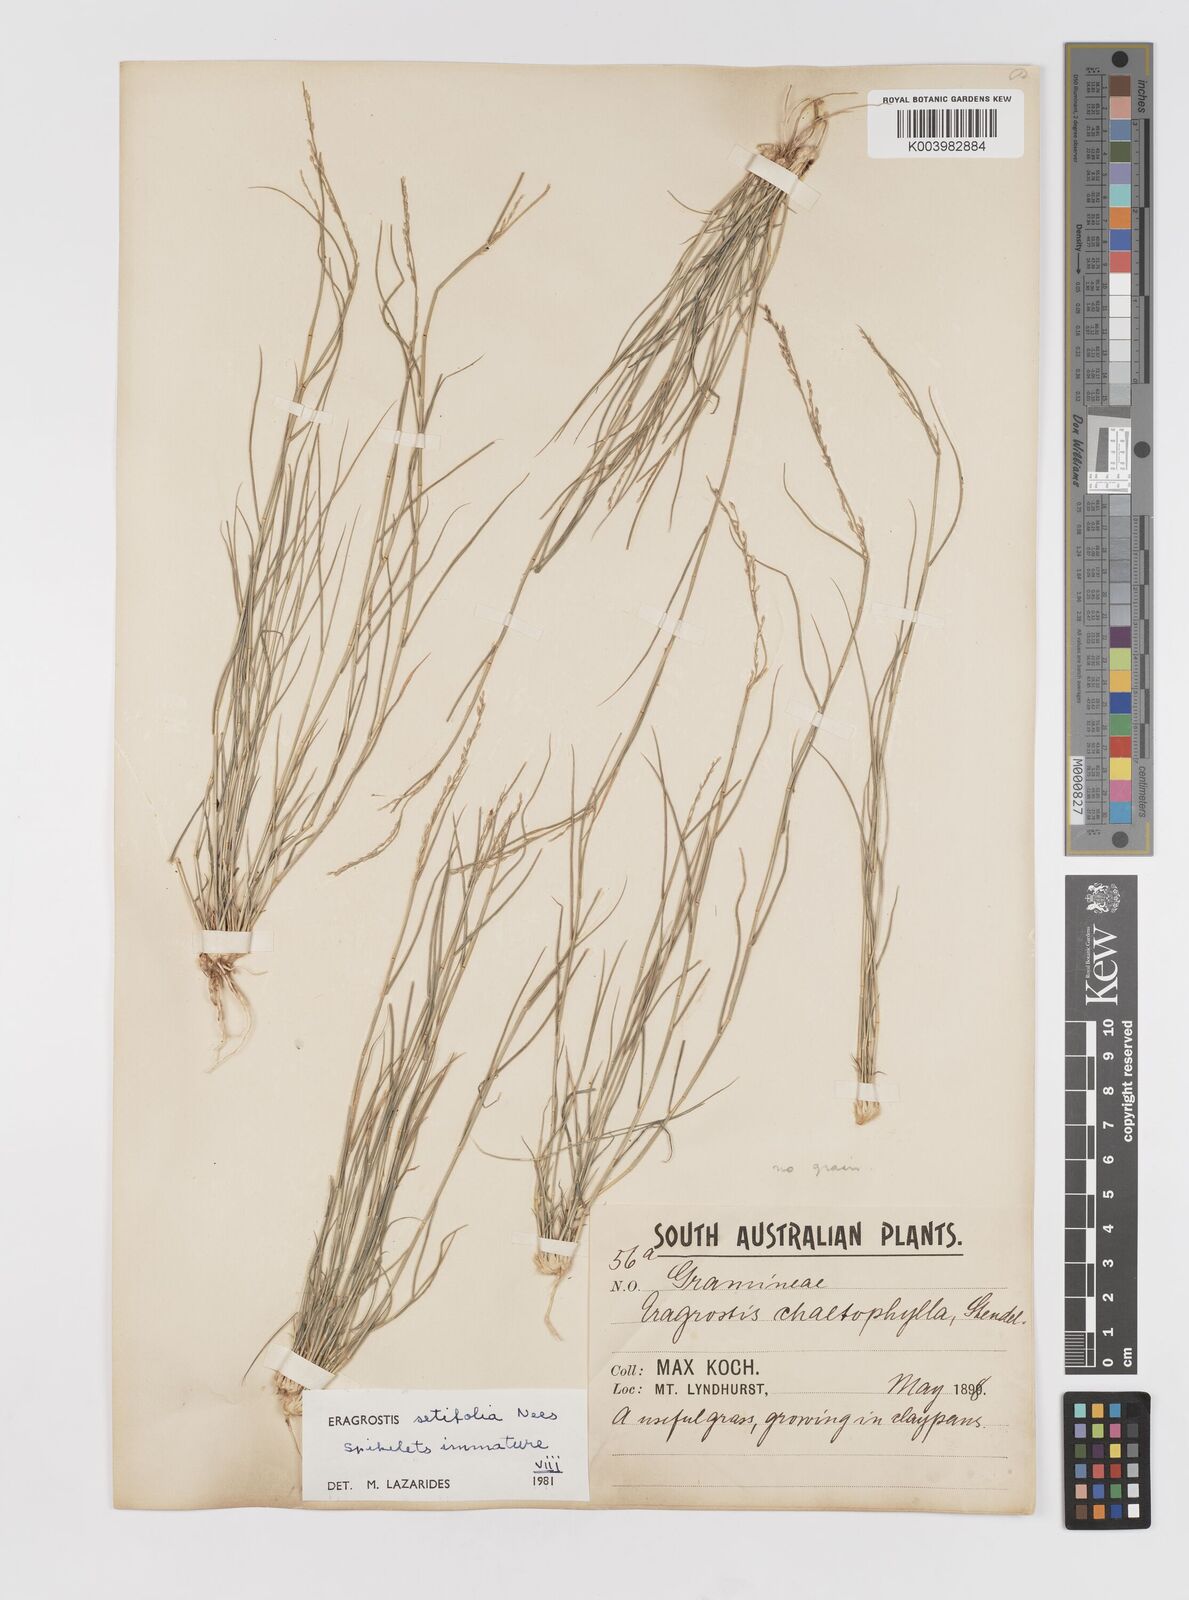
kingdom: Plantae
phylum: Tracheophyta
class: Liliopsida
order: Poales
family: Poaceae
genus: Eragrostis
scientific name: Eragrostis setifolia
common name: Bristleleaf lovegrass
